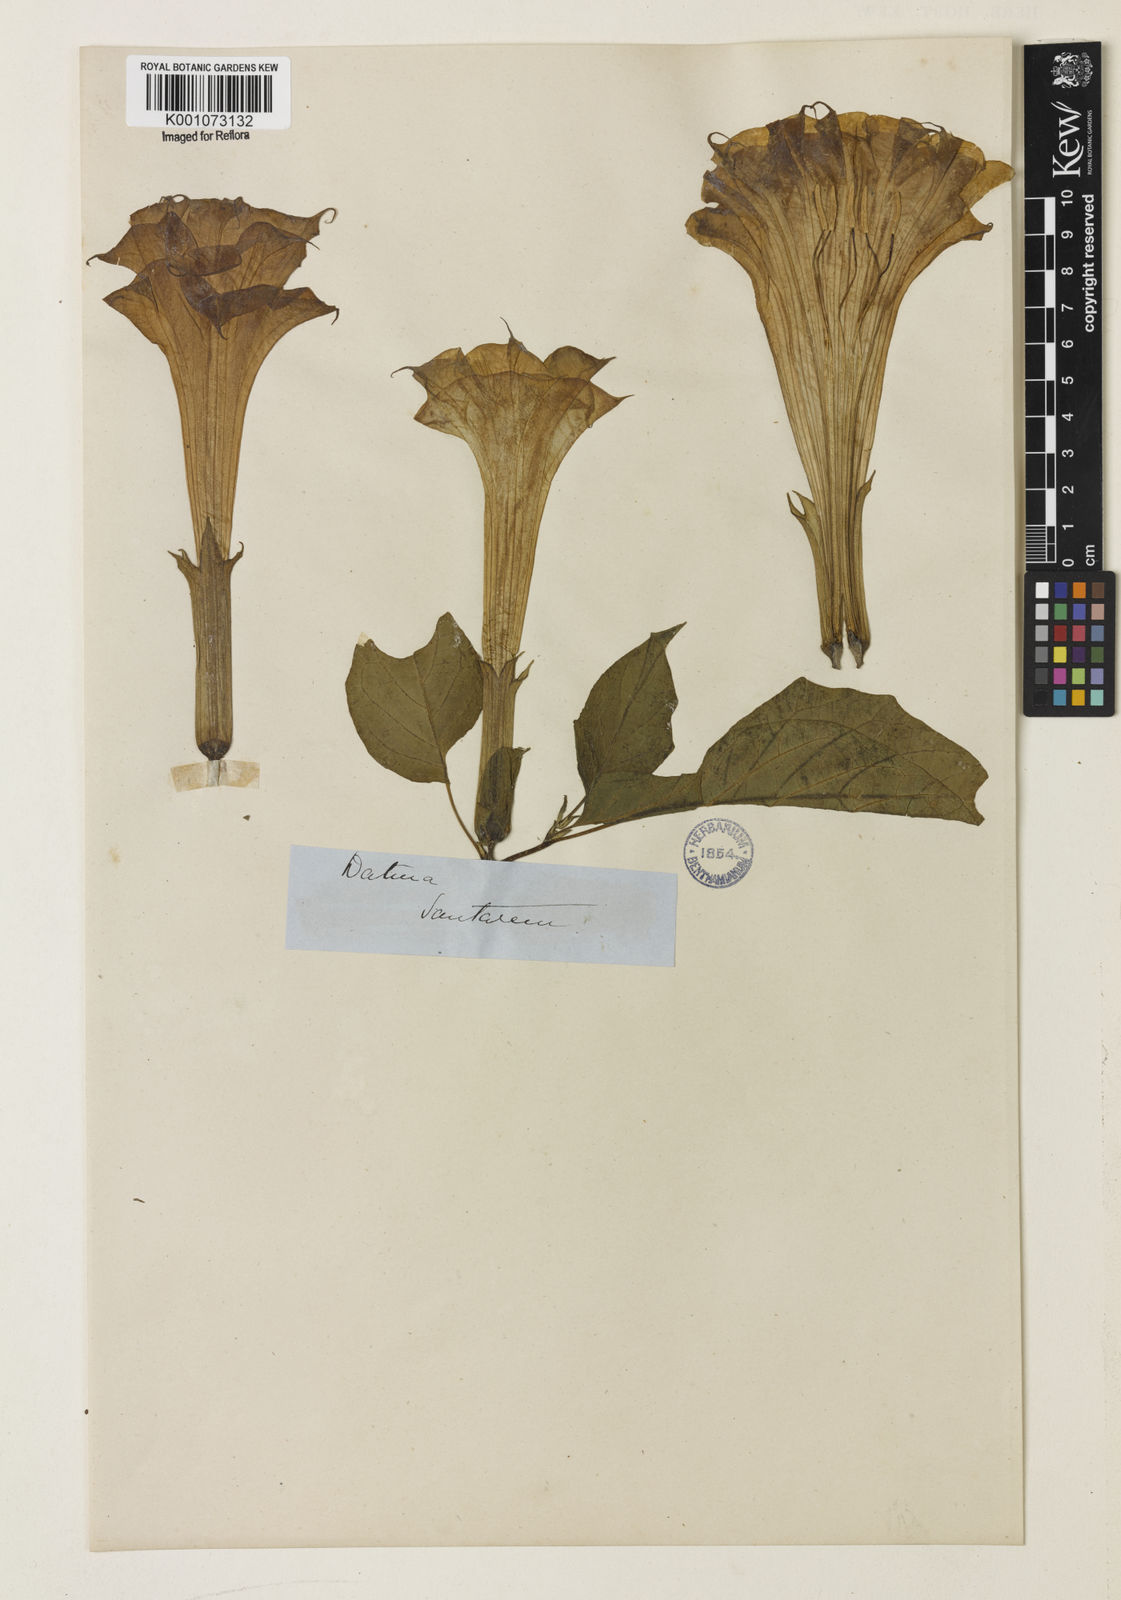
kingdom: Plantae
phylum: Tracheophyta
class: Magnoliopsida
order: Solanales
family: Solanaceae
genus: Datura
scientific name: Datura metel
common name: Jimsonweed
